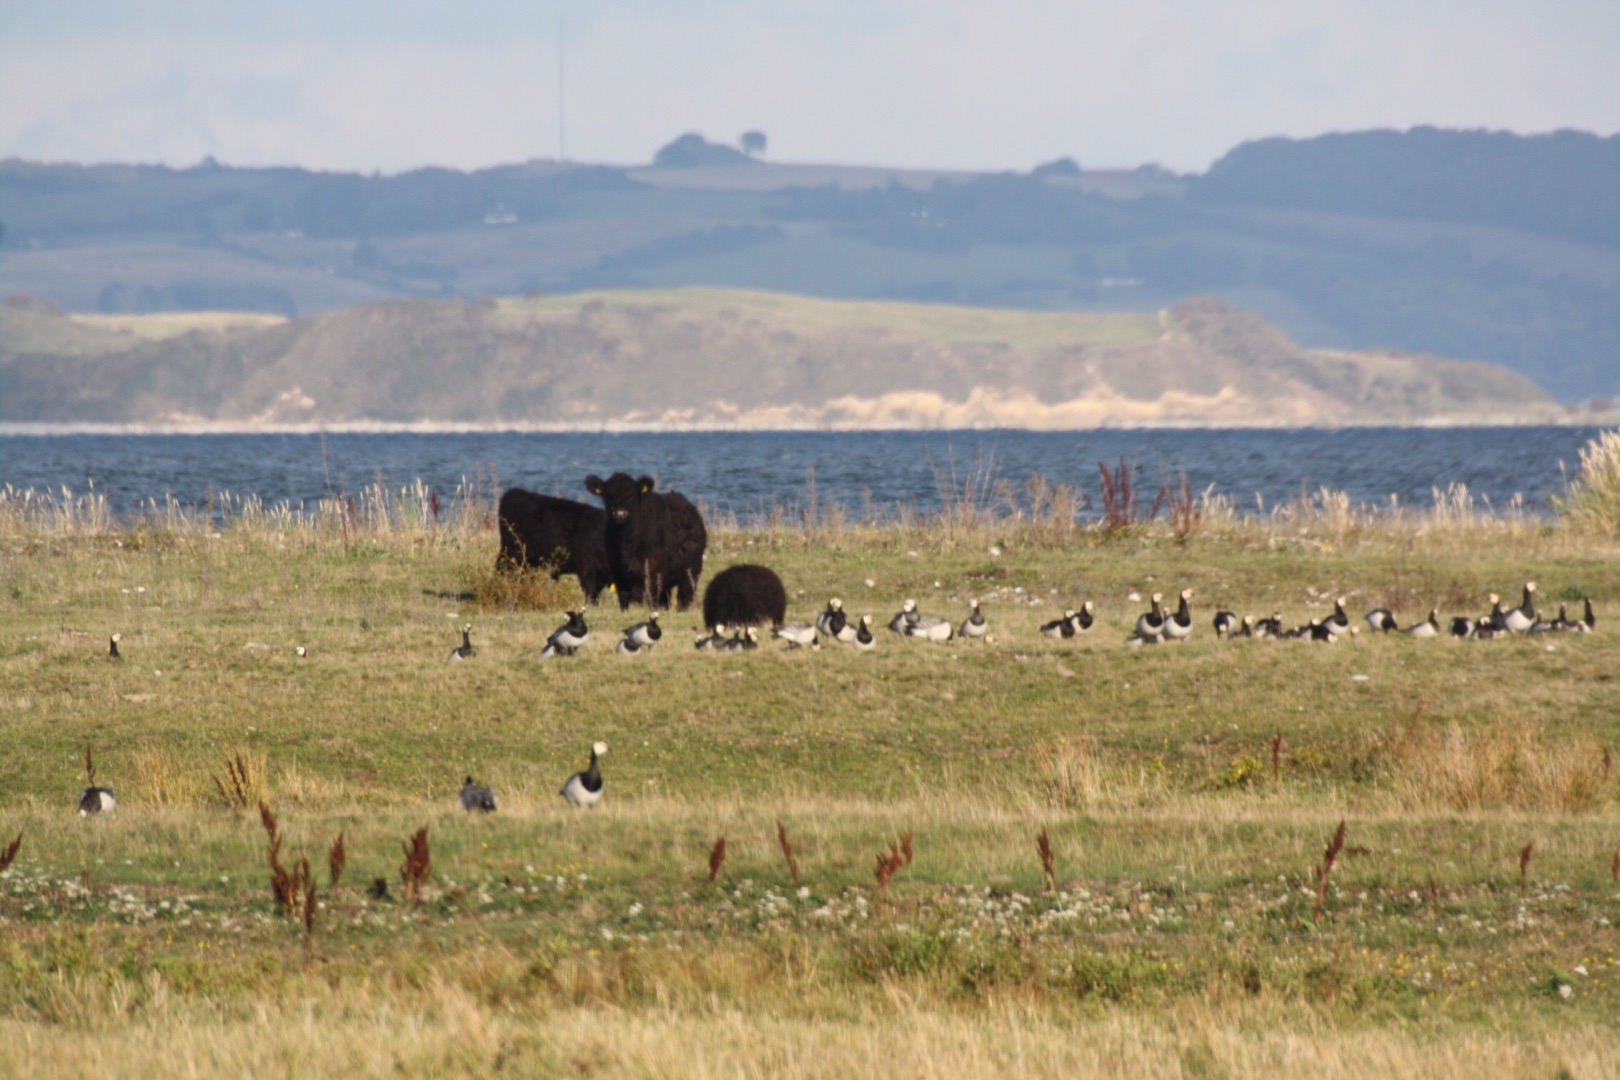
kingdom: Animalia
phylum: Chordata
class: Aves
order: Anseriformes
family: Anatidae
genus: Branta
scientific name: Branta leucopsis
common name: Bramgås
